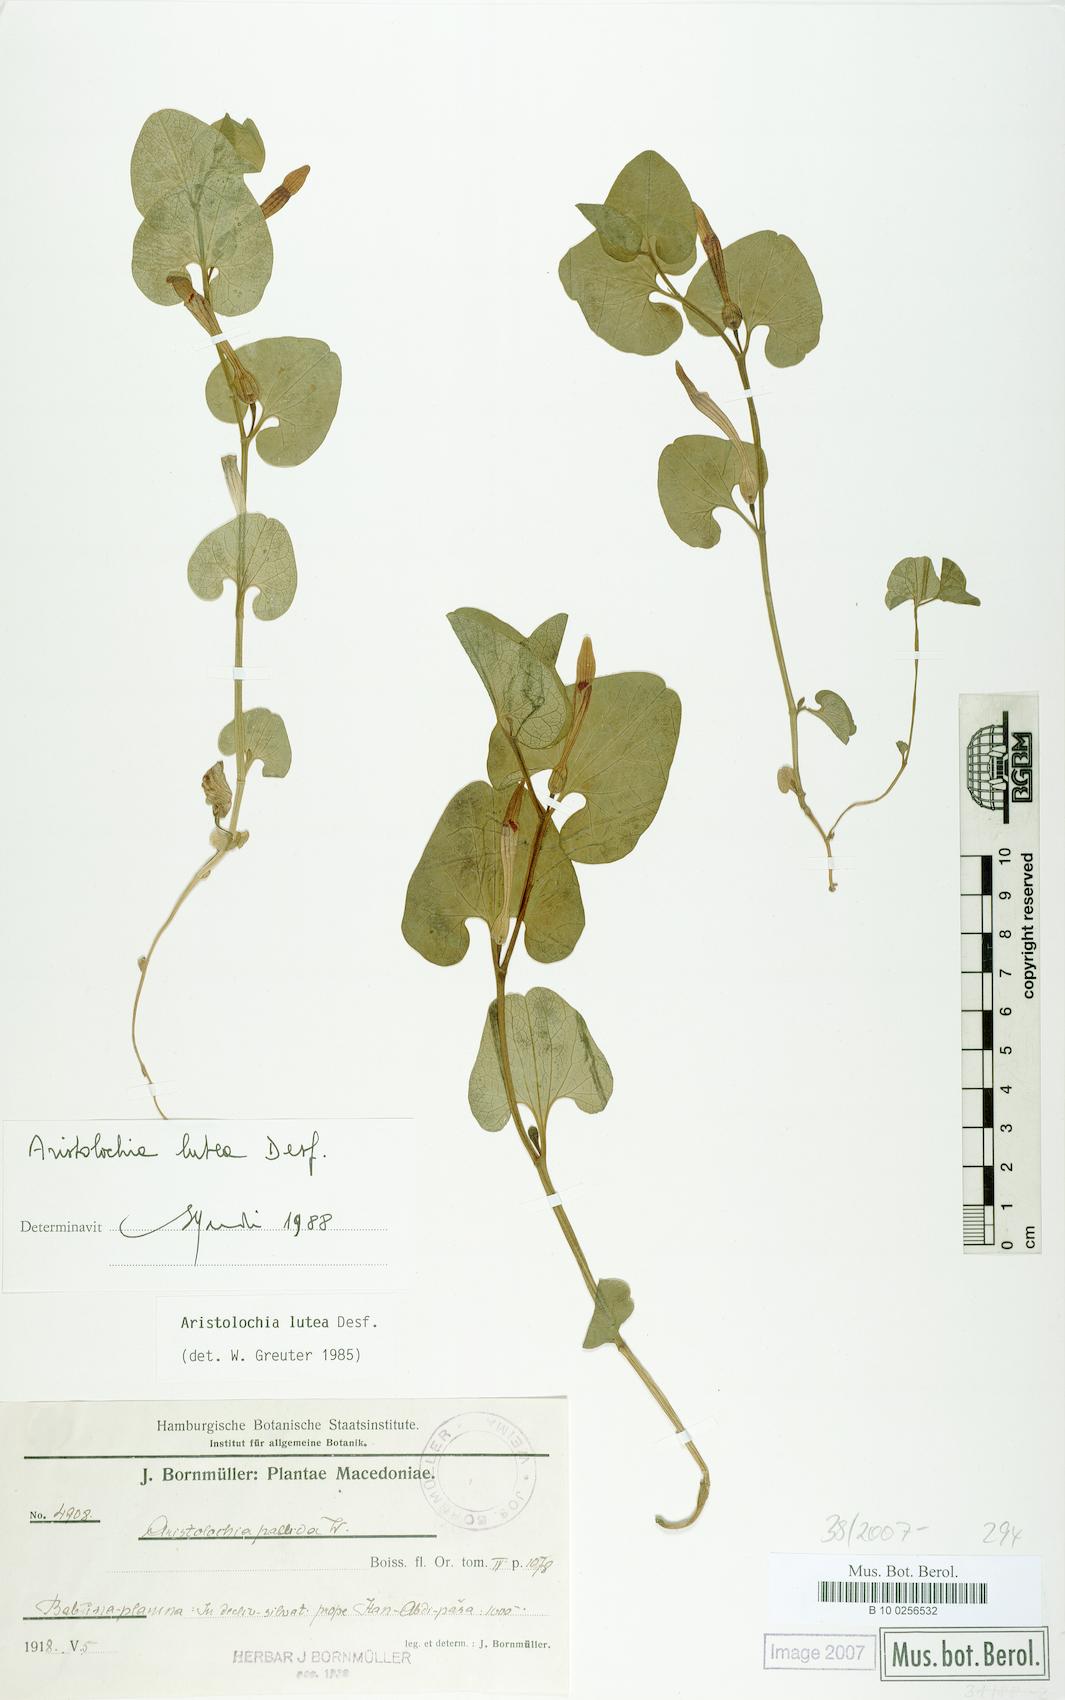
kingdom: Plantae
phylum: Tracheophyta
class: Magnoliopsida
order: Piperales
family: Aristolochiaceae
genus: Aristolochia
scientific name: Aristolochia lutea
